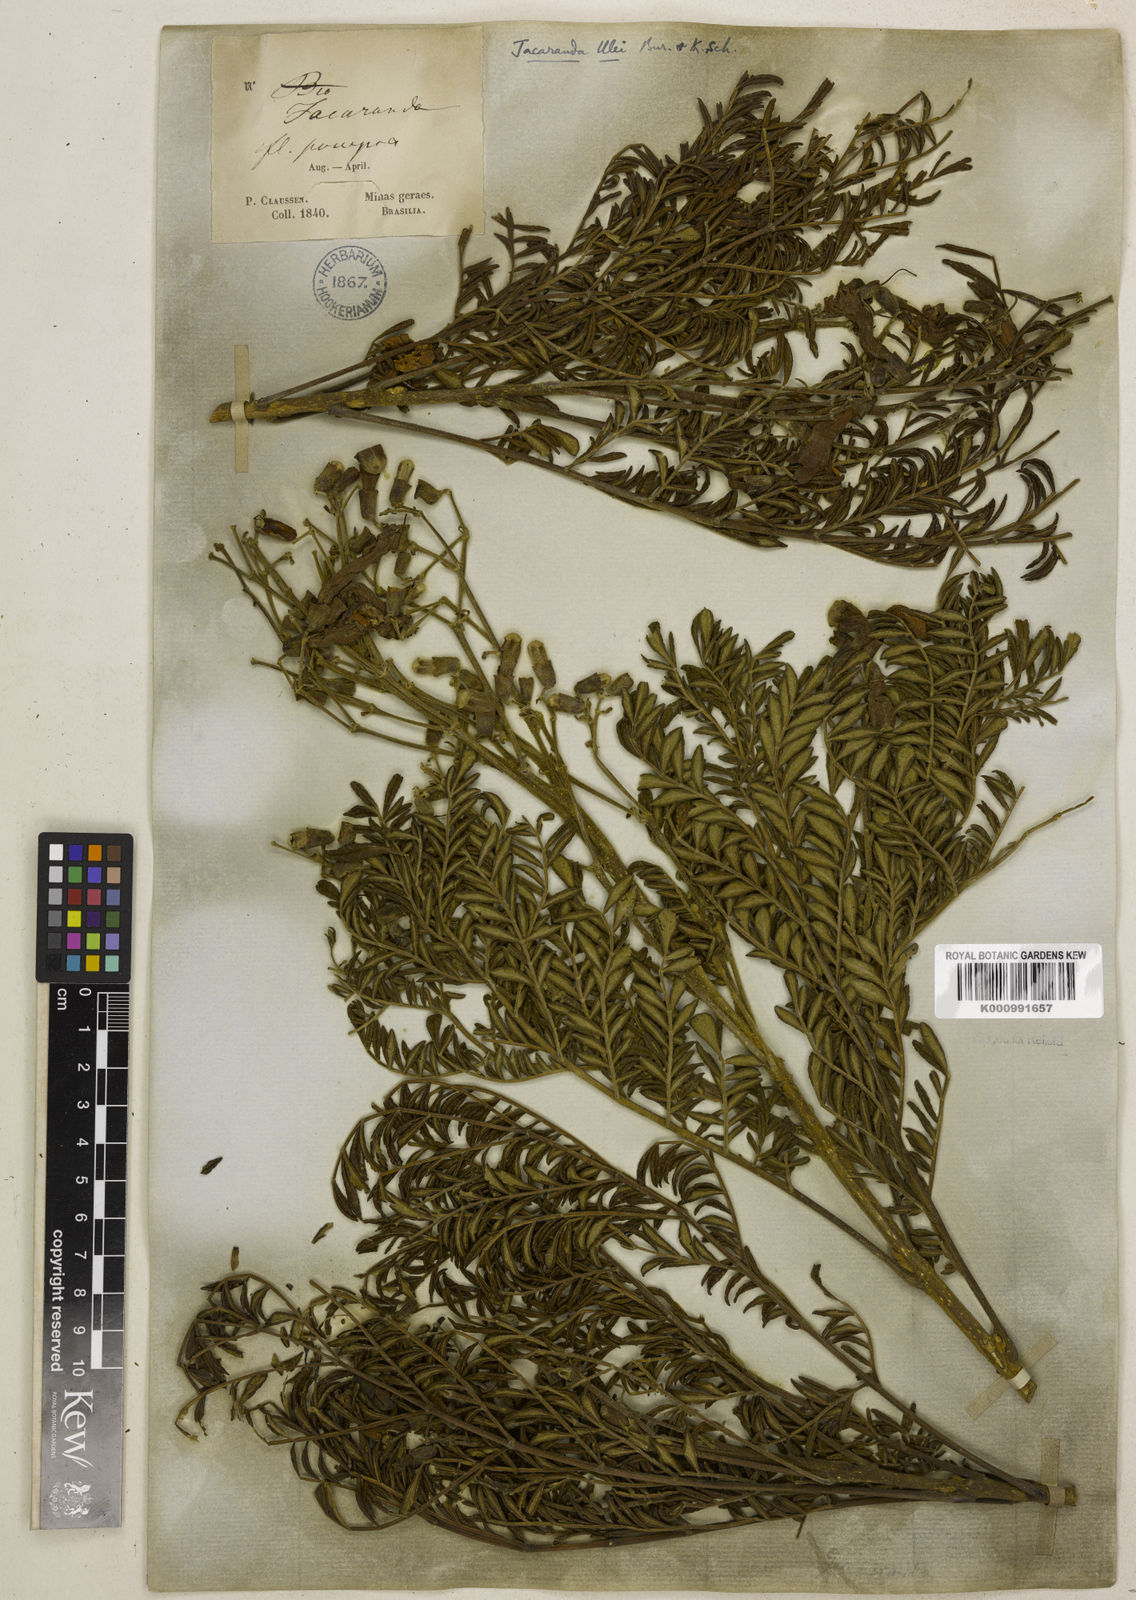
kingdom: Plantae
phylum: Tracheophyta
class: Magnoliopsida
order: Lamiales
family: Bignoniaceae
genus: Jacaranda
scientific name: Jacaranda ulei
